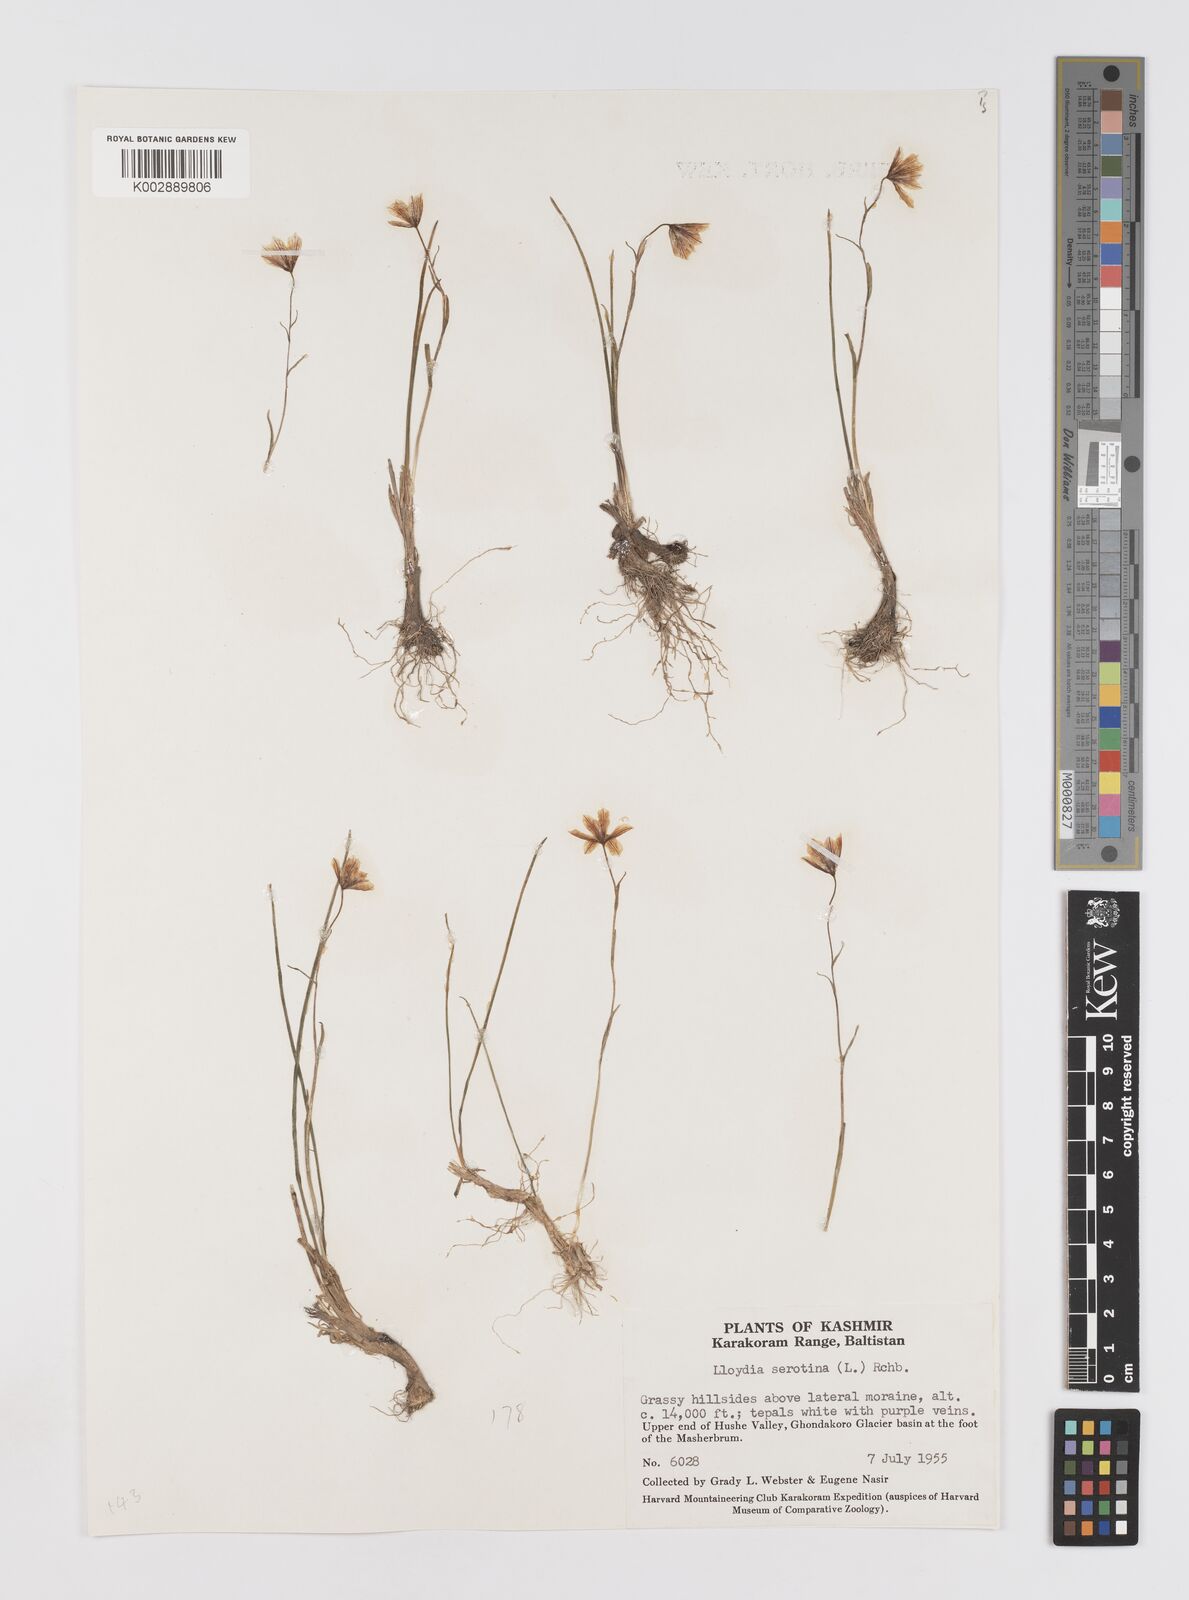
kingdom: Plantae
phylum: Tracheophyta
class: Liliopsida
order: Liliales
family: Liliaceae
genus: Gagea
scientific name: Gagea serotina
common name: Snowdon lily
